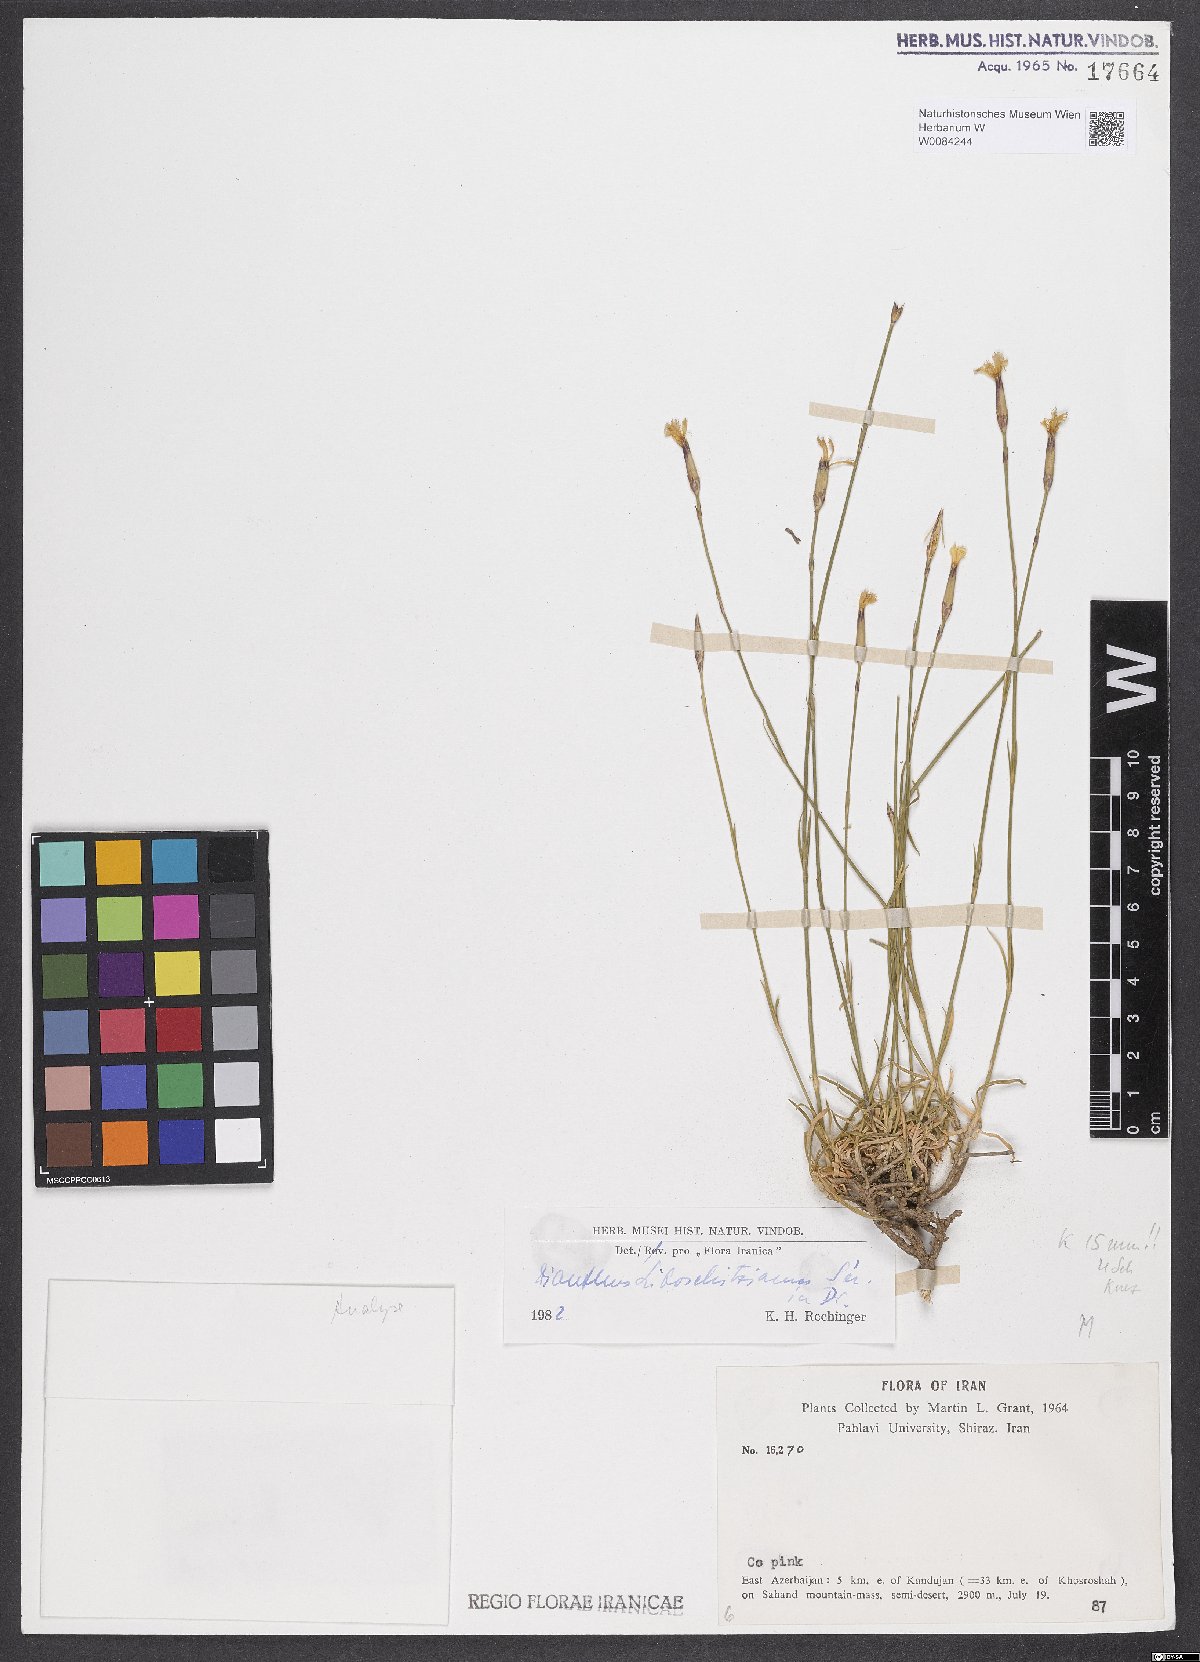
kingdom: Plantae
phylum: Tracheophyta
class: Magnoliopsida
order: Caryophyllales
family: Caryophyllaceae
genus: Dianthus
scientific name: Dianthus cretaceus
